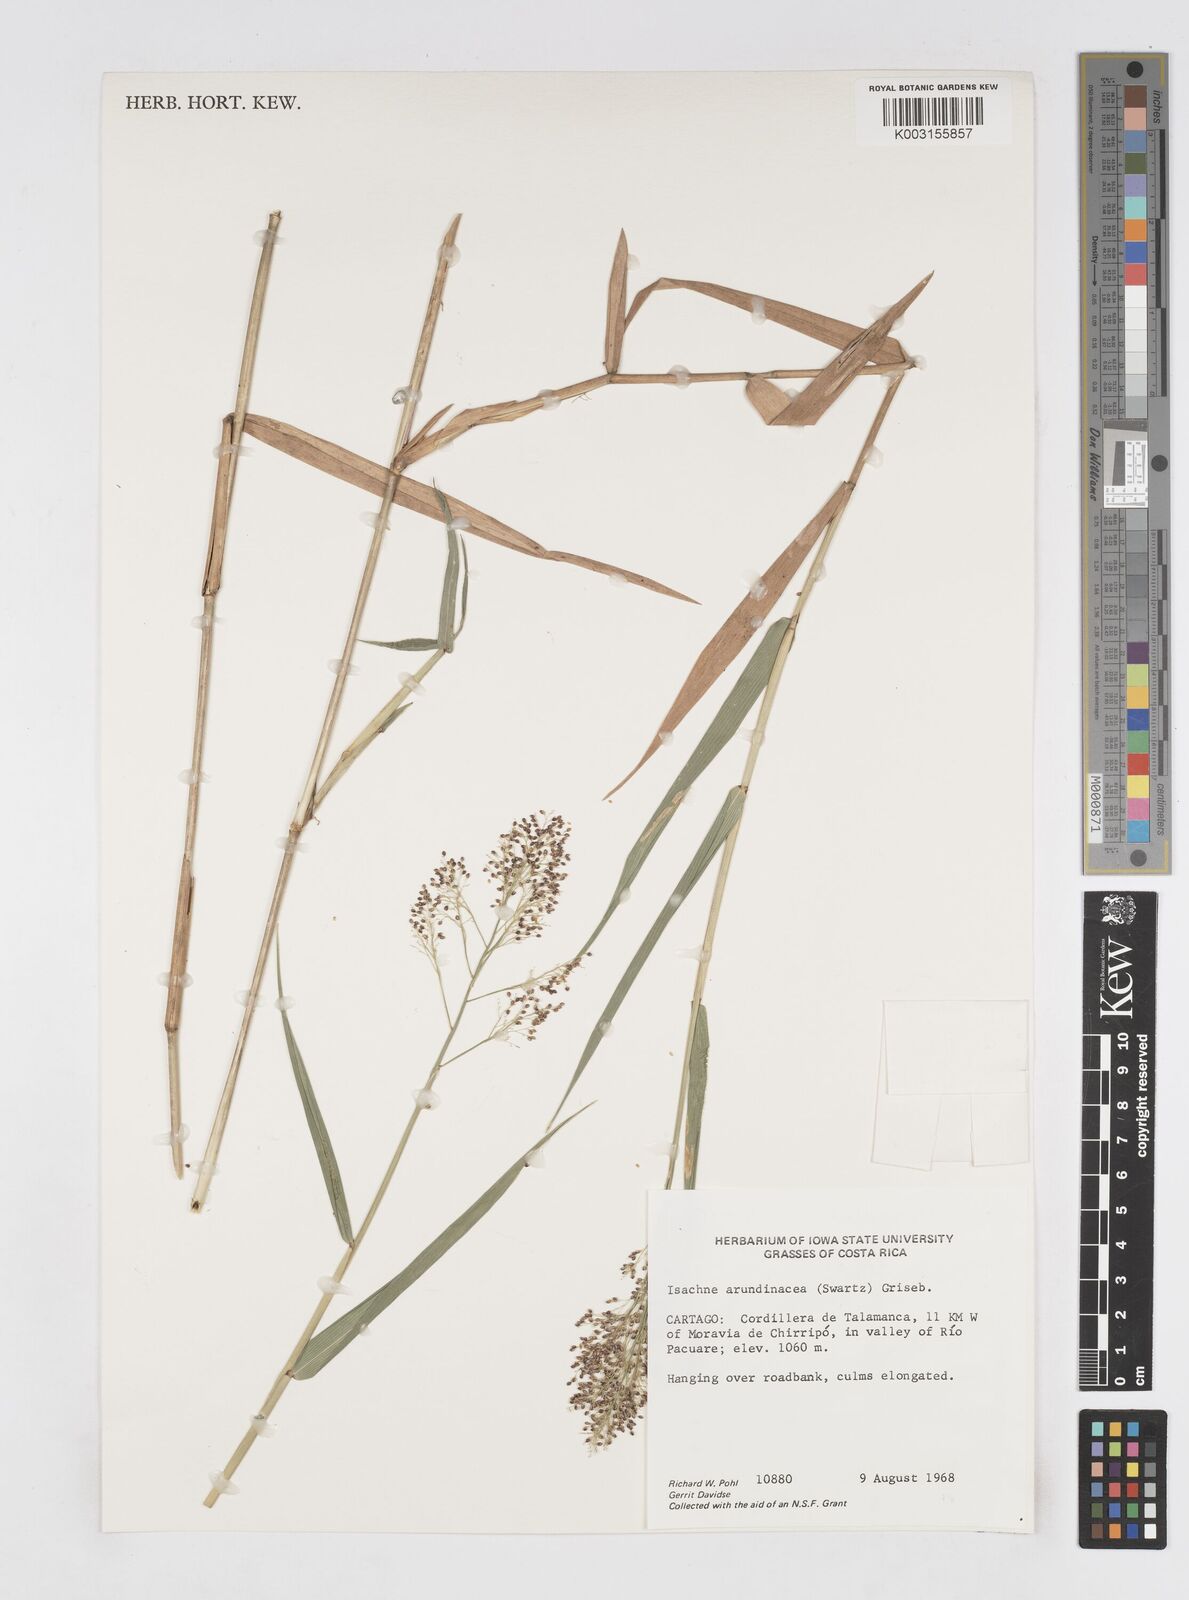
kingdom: Plantae
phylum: Tracheophyta
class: Liliopsida
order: Poales
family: Poaceae
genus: Isachne
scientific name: Isachne arundinacea
